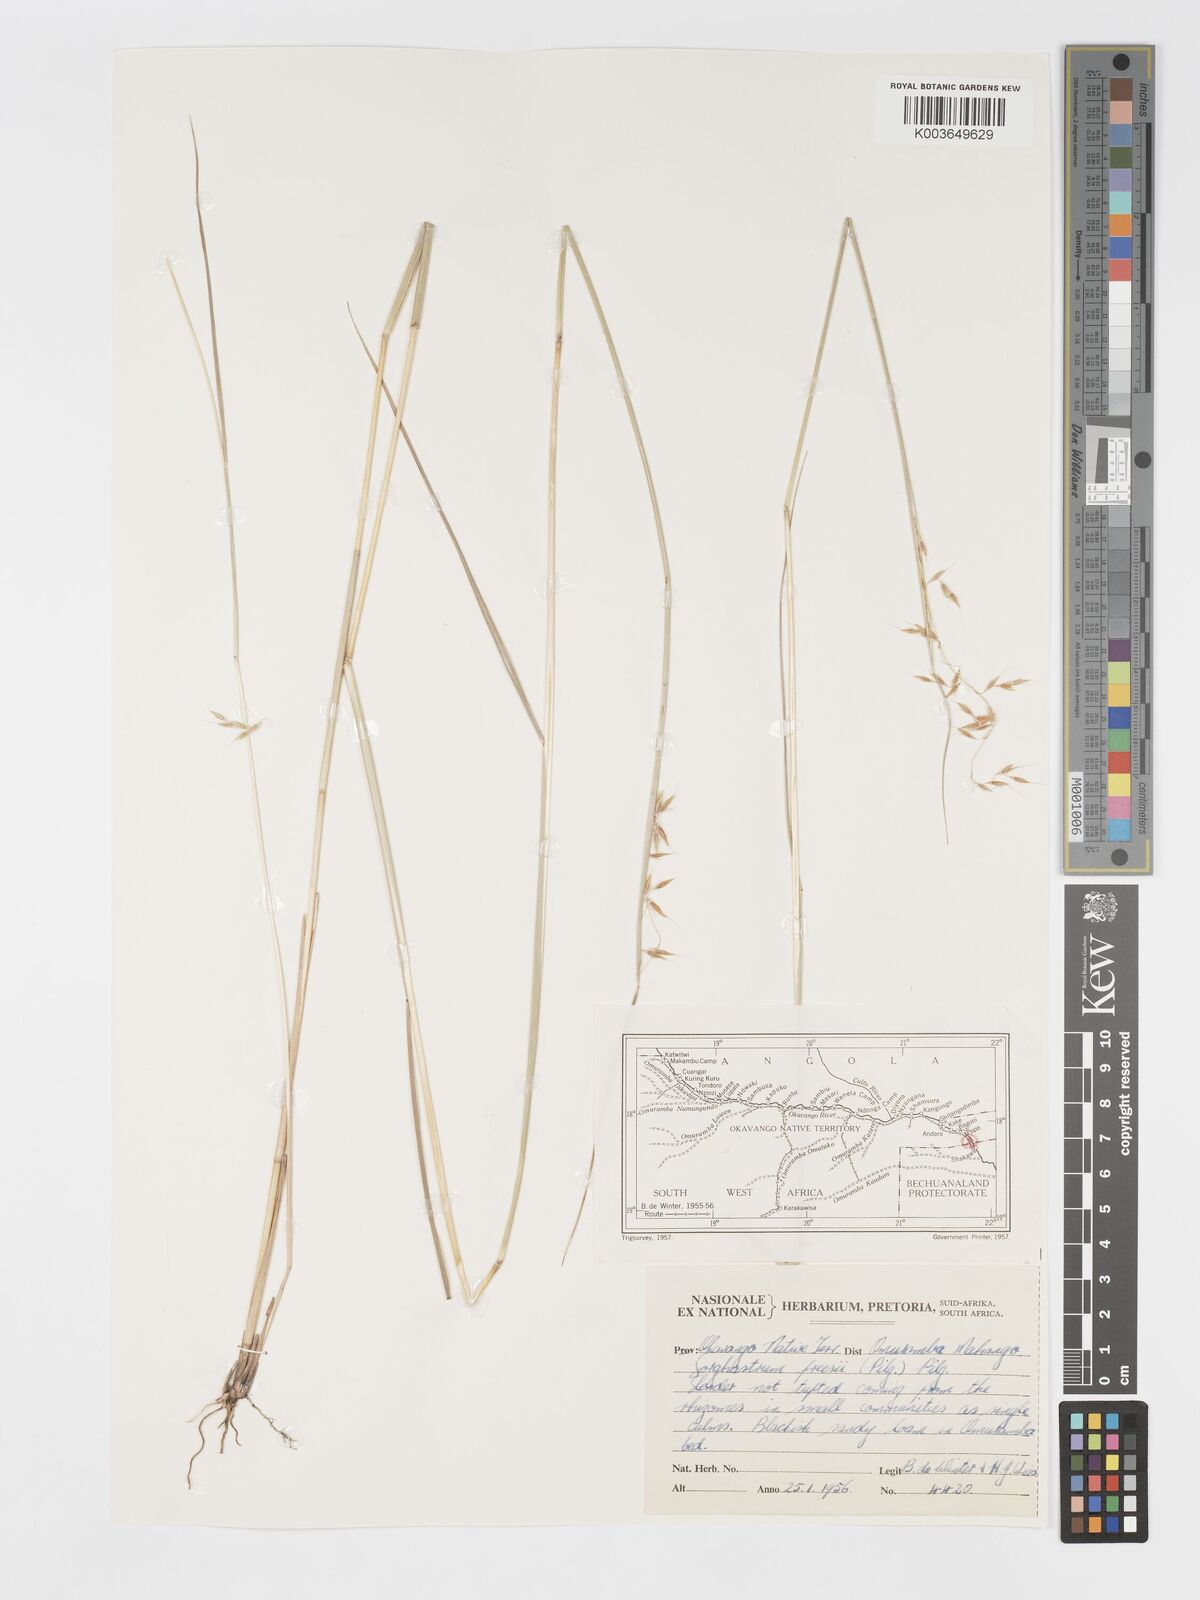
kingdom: Plantae
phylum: Tracheophyta
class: Liliopsida
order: Poales
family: Poaceae
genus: Sorghastrum
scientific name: Sorghastrum nudipes
